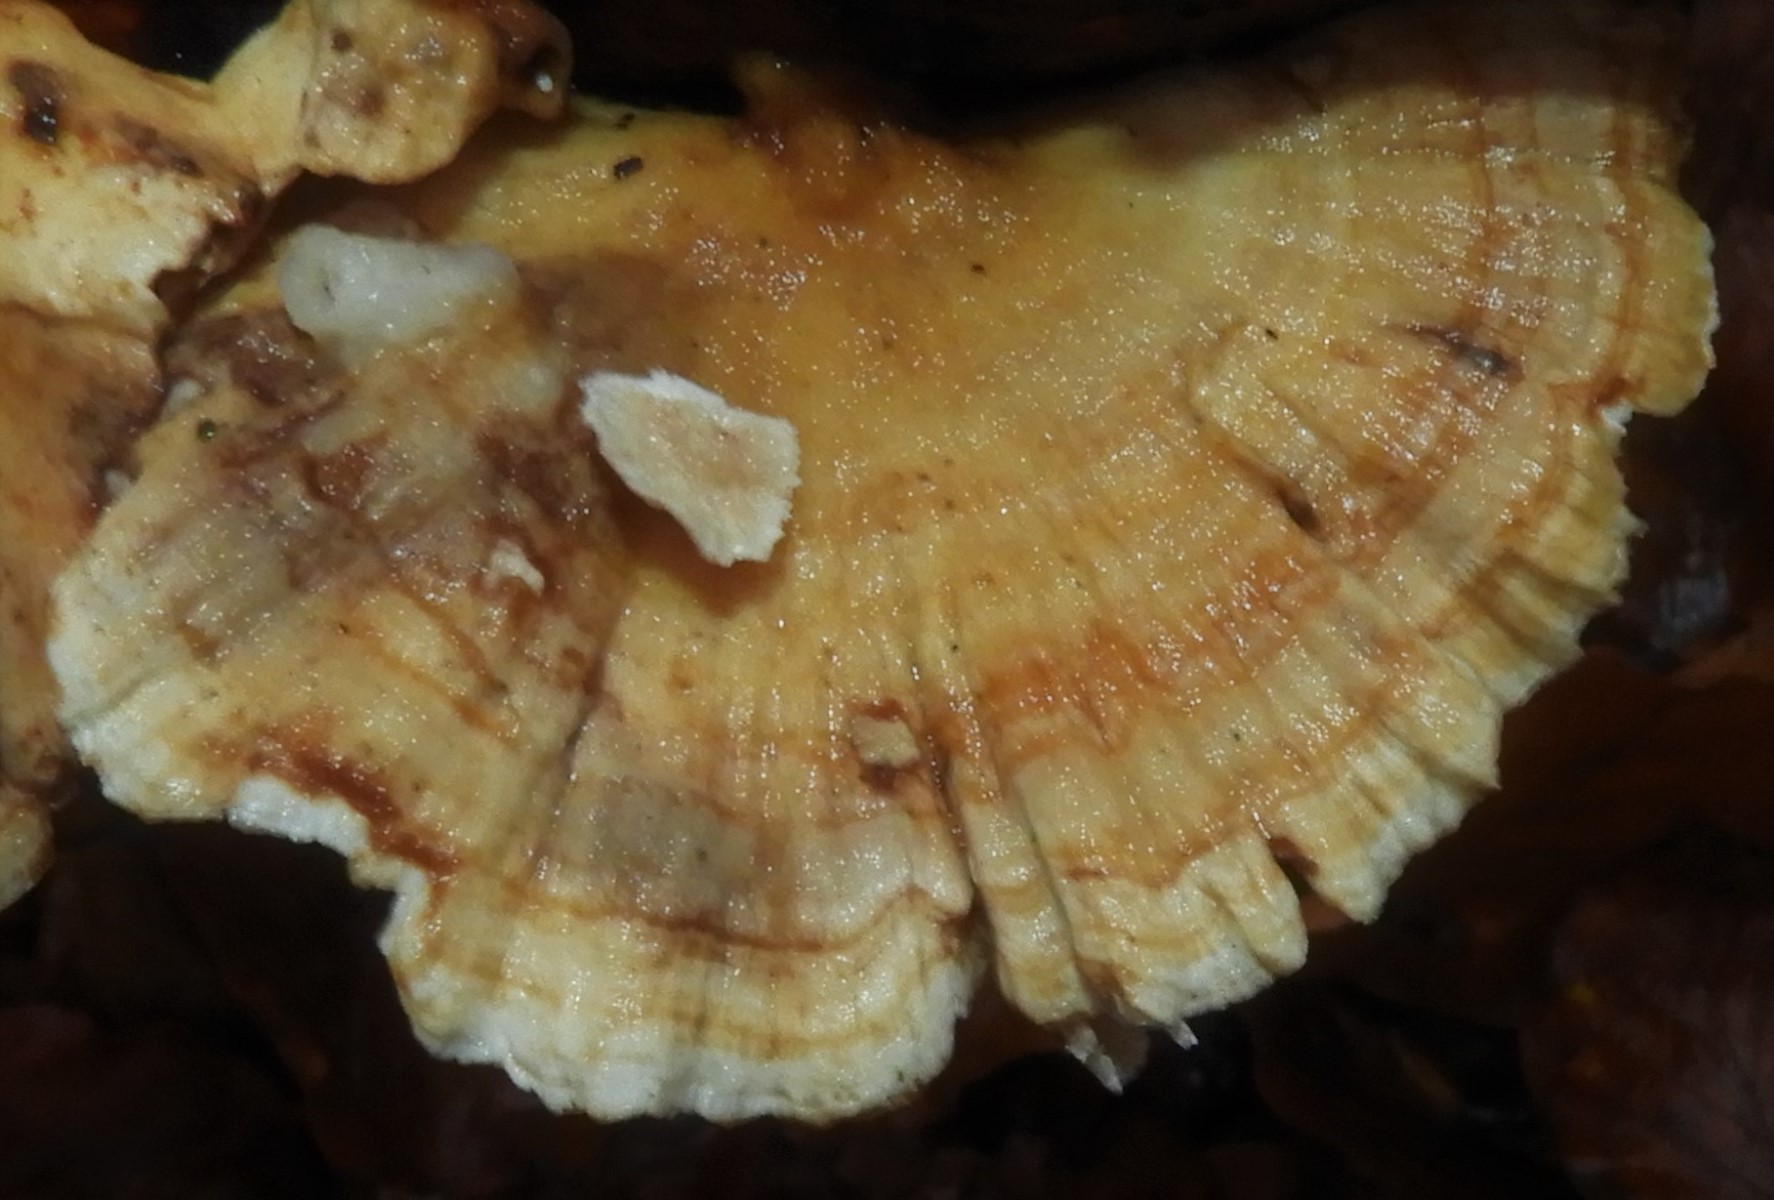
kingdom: Fungi
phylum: Basidiomycota
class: Agaricomycetes
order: Polyporales
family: Polyporaceae
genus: Trametes
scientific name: Trametes
